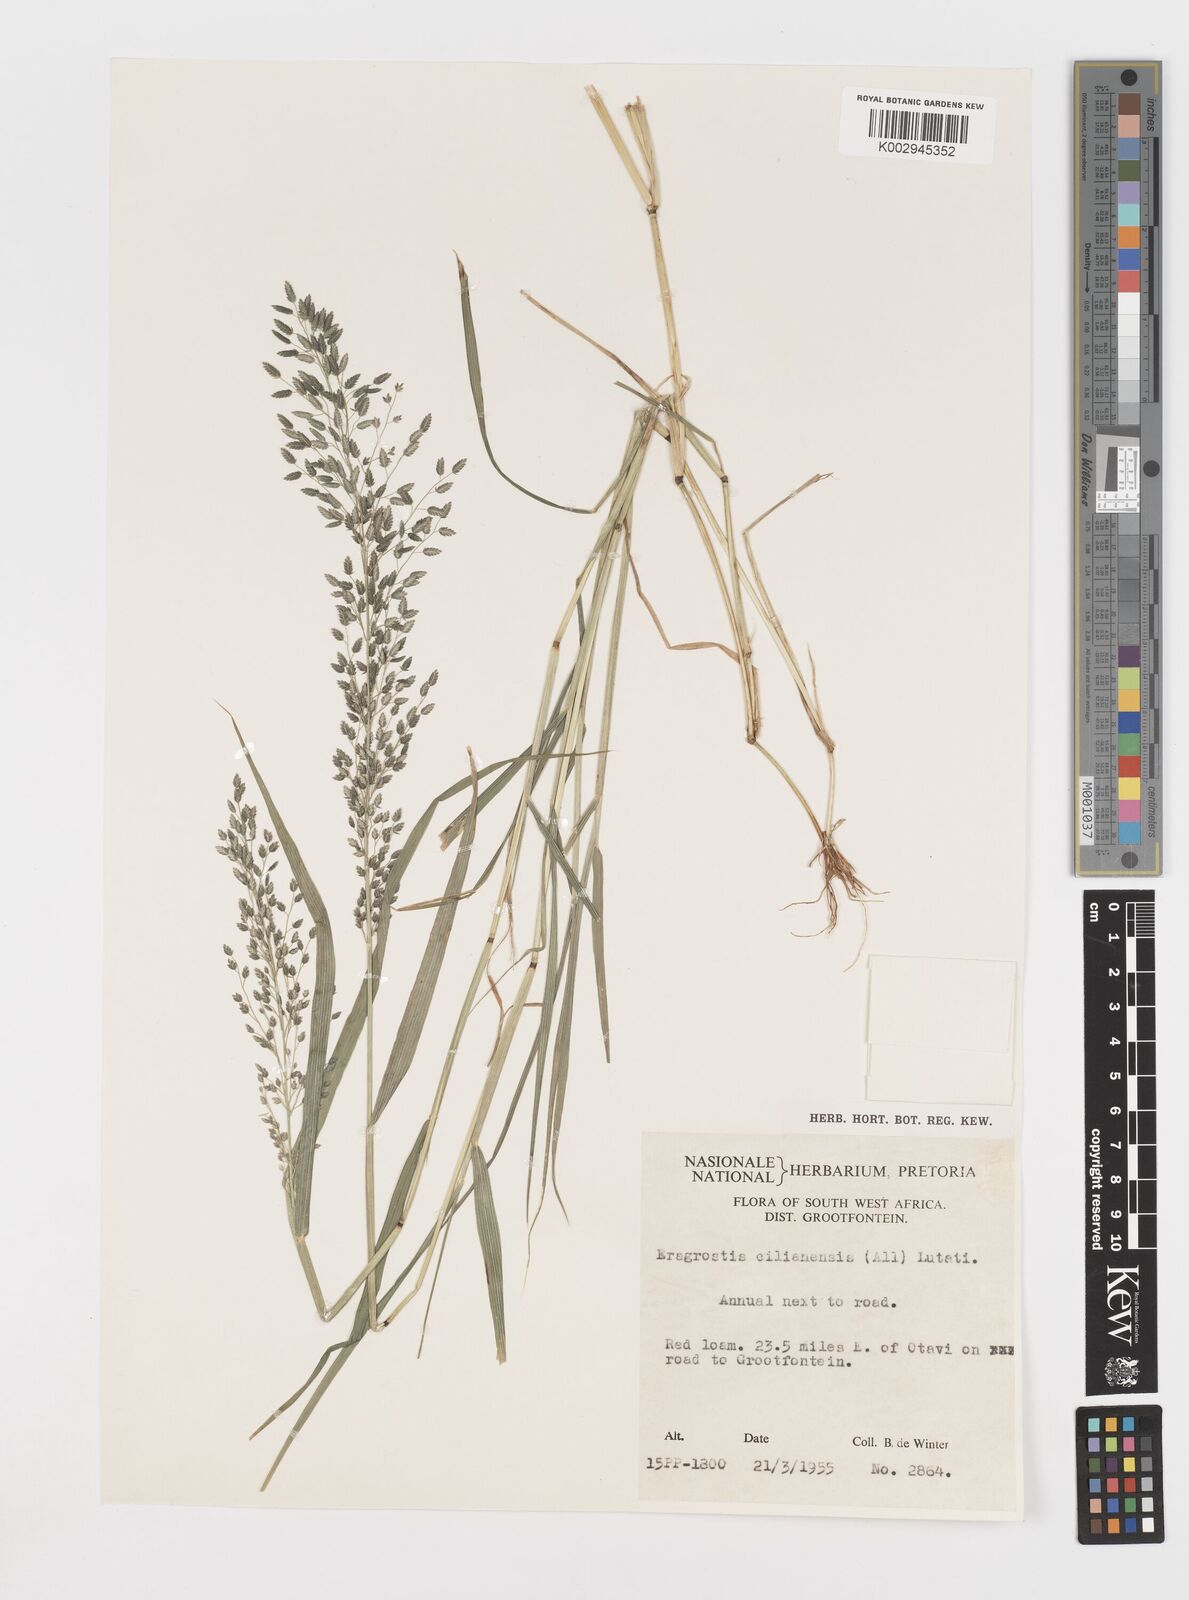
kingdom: Plantae
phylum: Tracheophyta
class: Liliopsida
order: Poales
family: Poaceae
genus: Eragrostis
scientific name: Eragrostis cilianensis
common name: Stinkgrass
